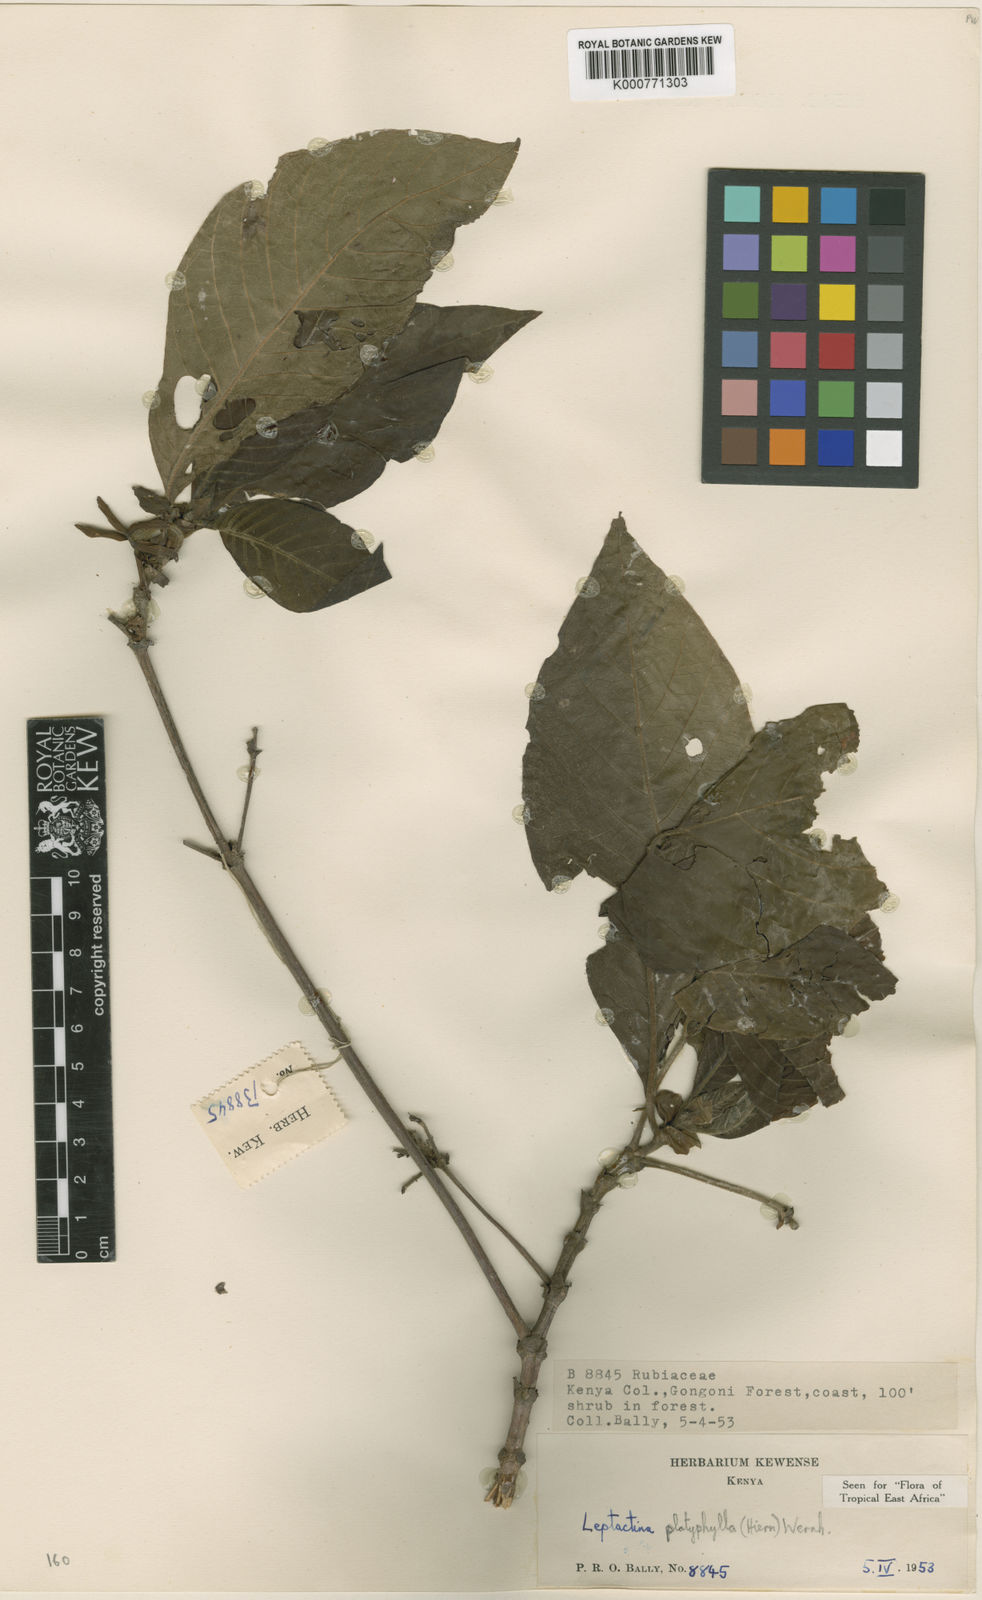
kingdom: Plantae
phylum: Tracheophyta
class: Magnoliopsida
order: Gentianales
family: Rubiaceae
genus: Leptactina
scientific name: Leptactina platyphylla
